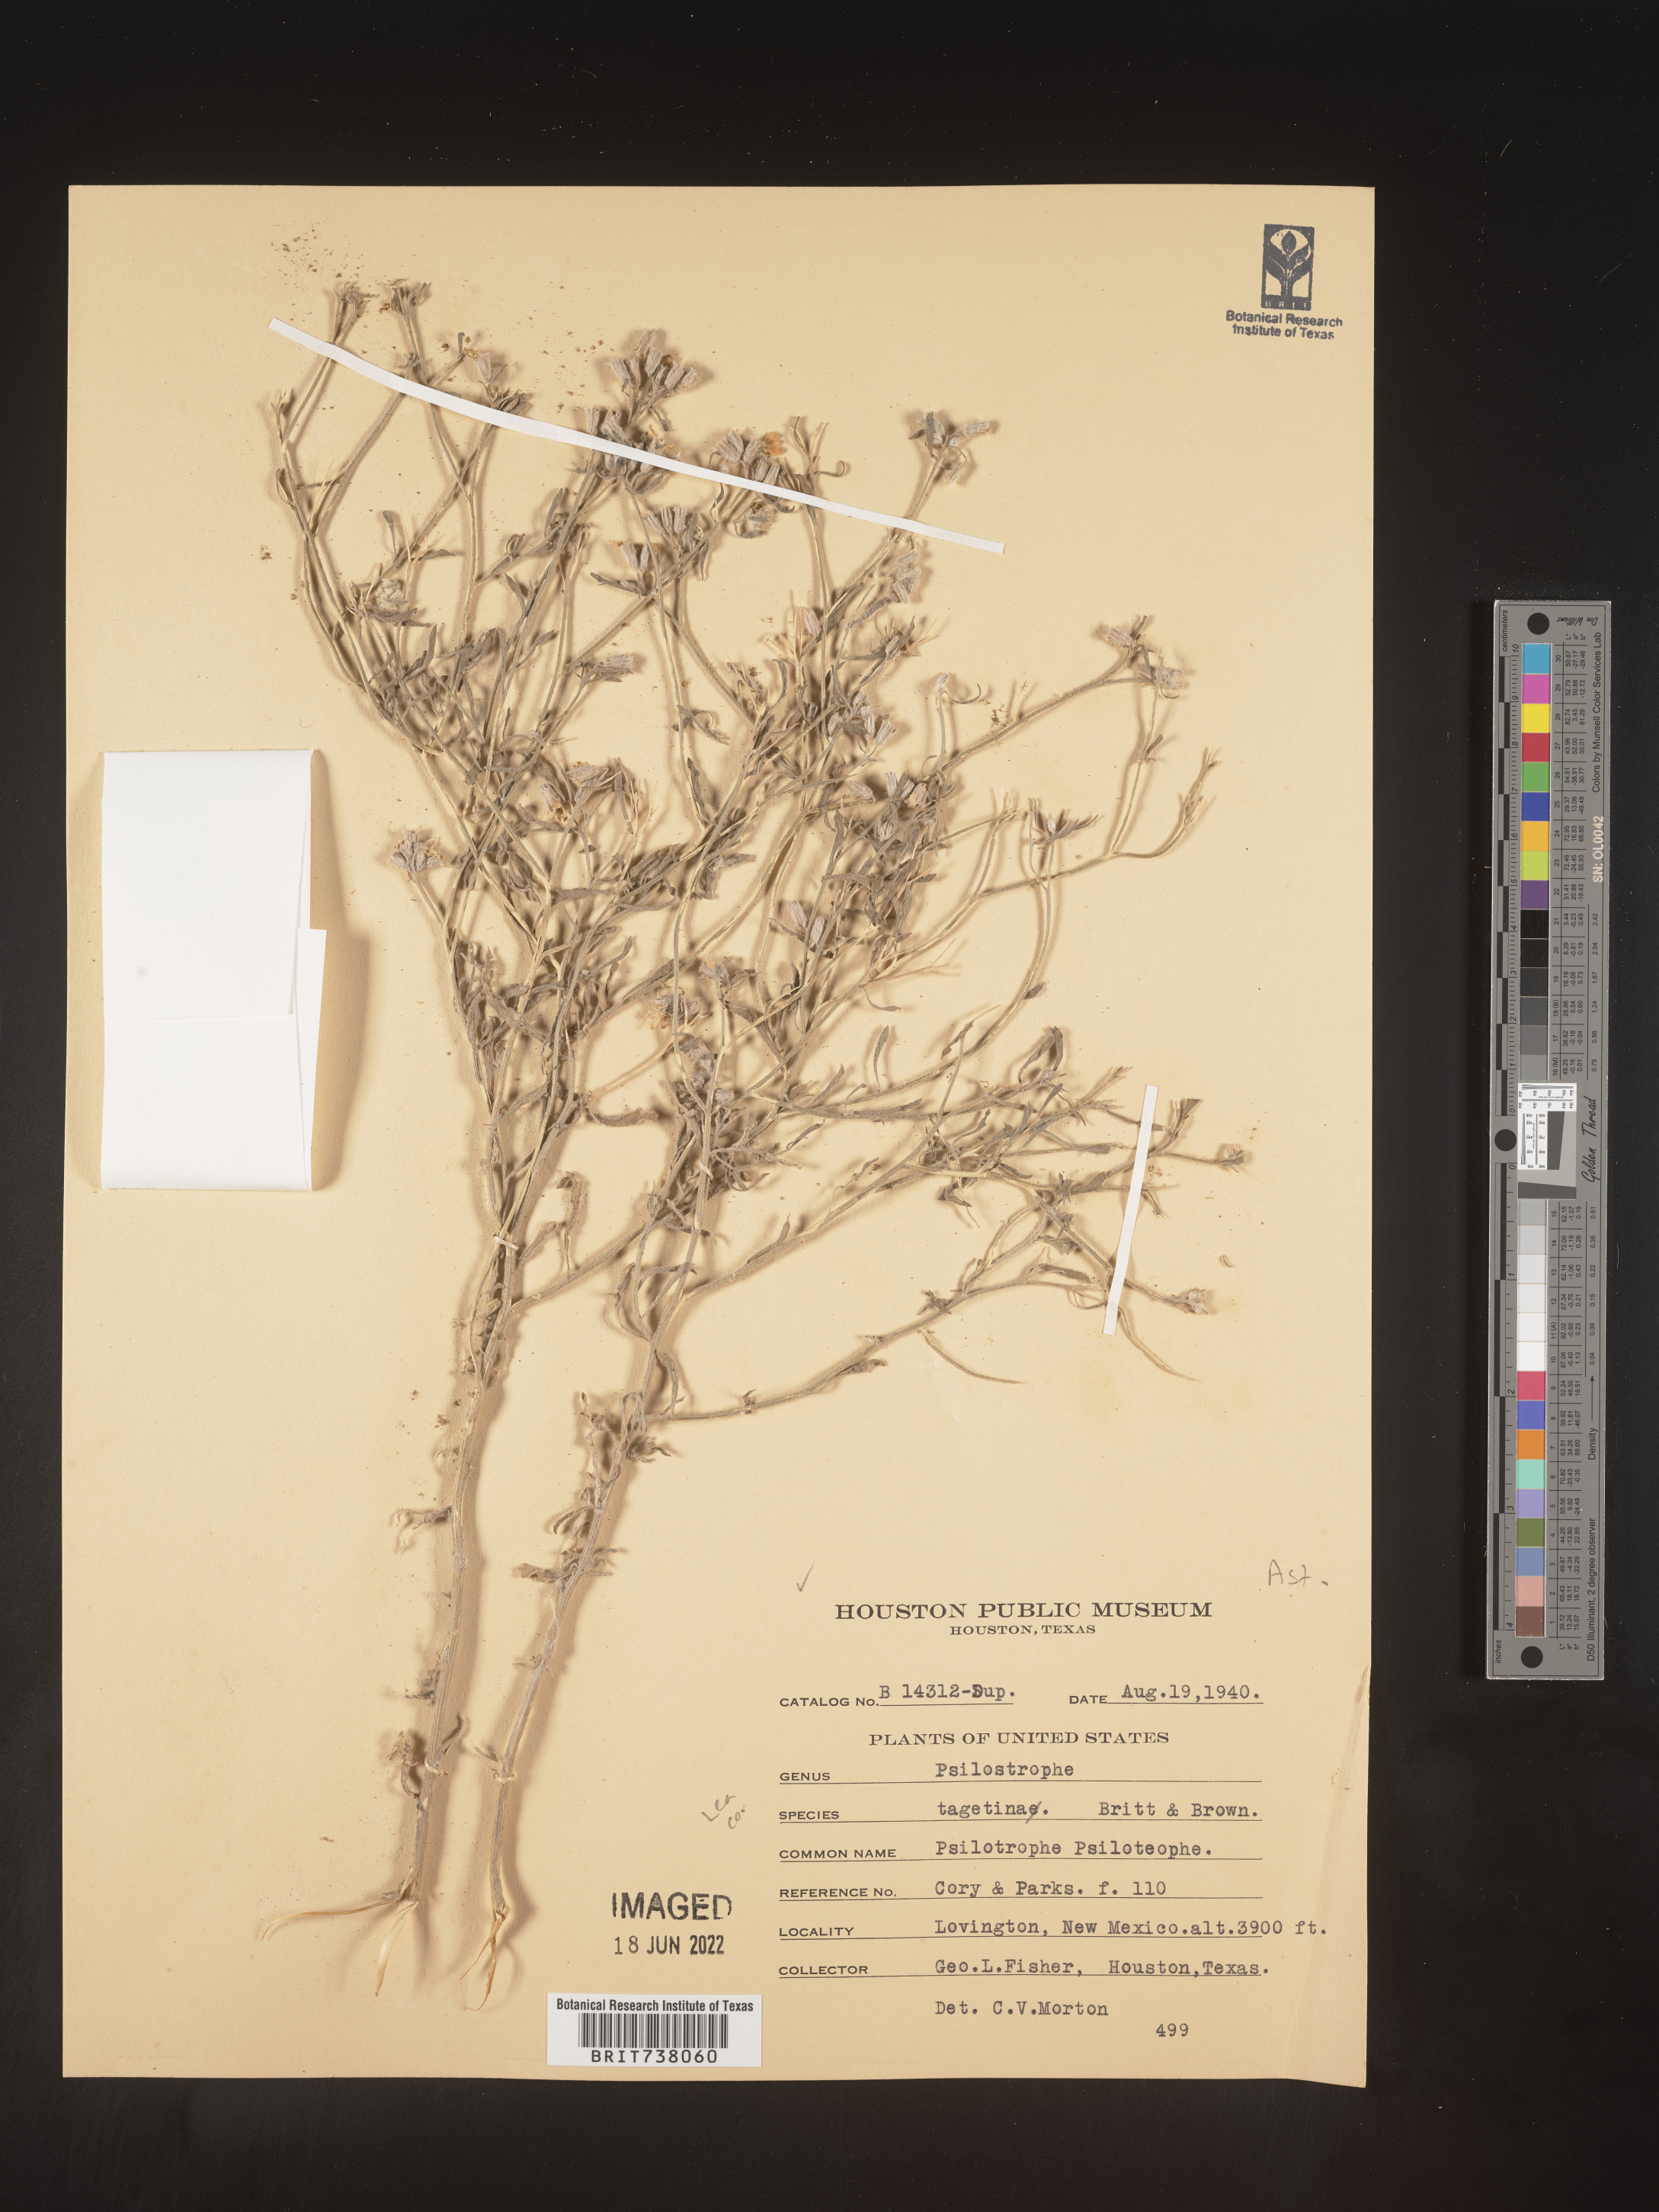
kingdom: Plantae
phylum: Tracheophyta
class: Magnoliopsida
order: Asterales
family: Asteraceae
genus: Psilostrophe
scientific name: Psilostrophe tagetina
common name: Marigold paper-flower
